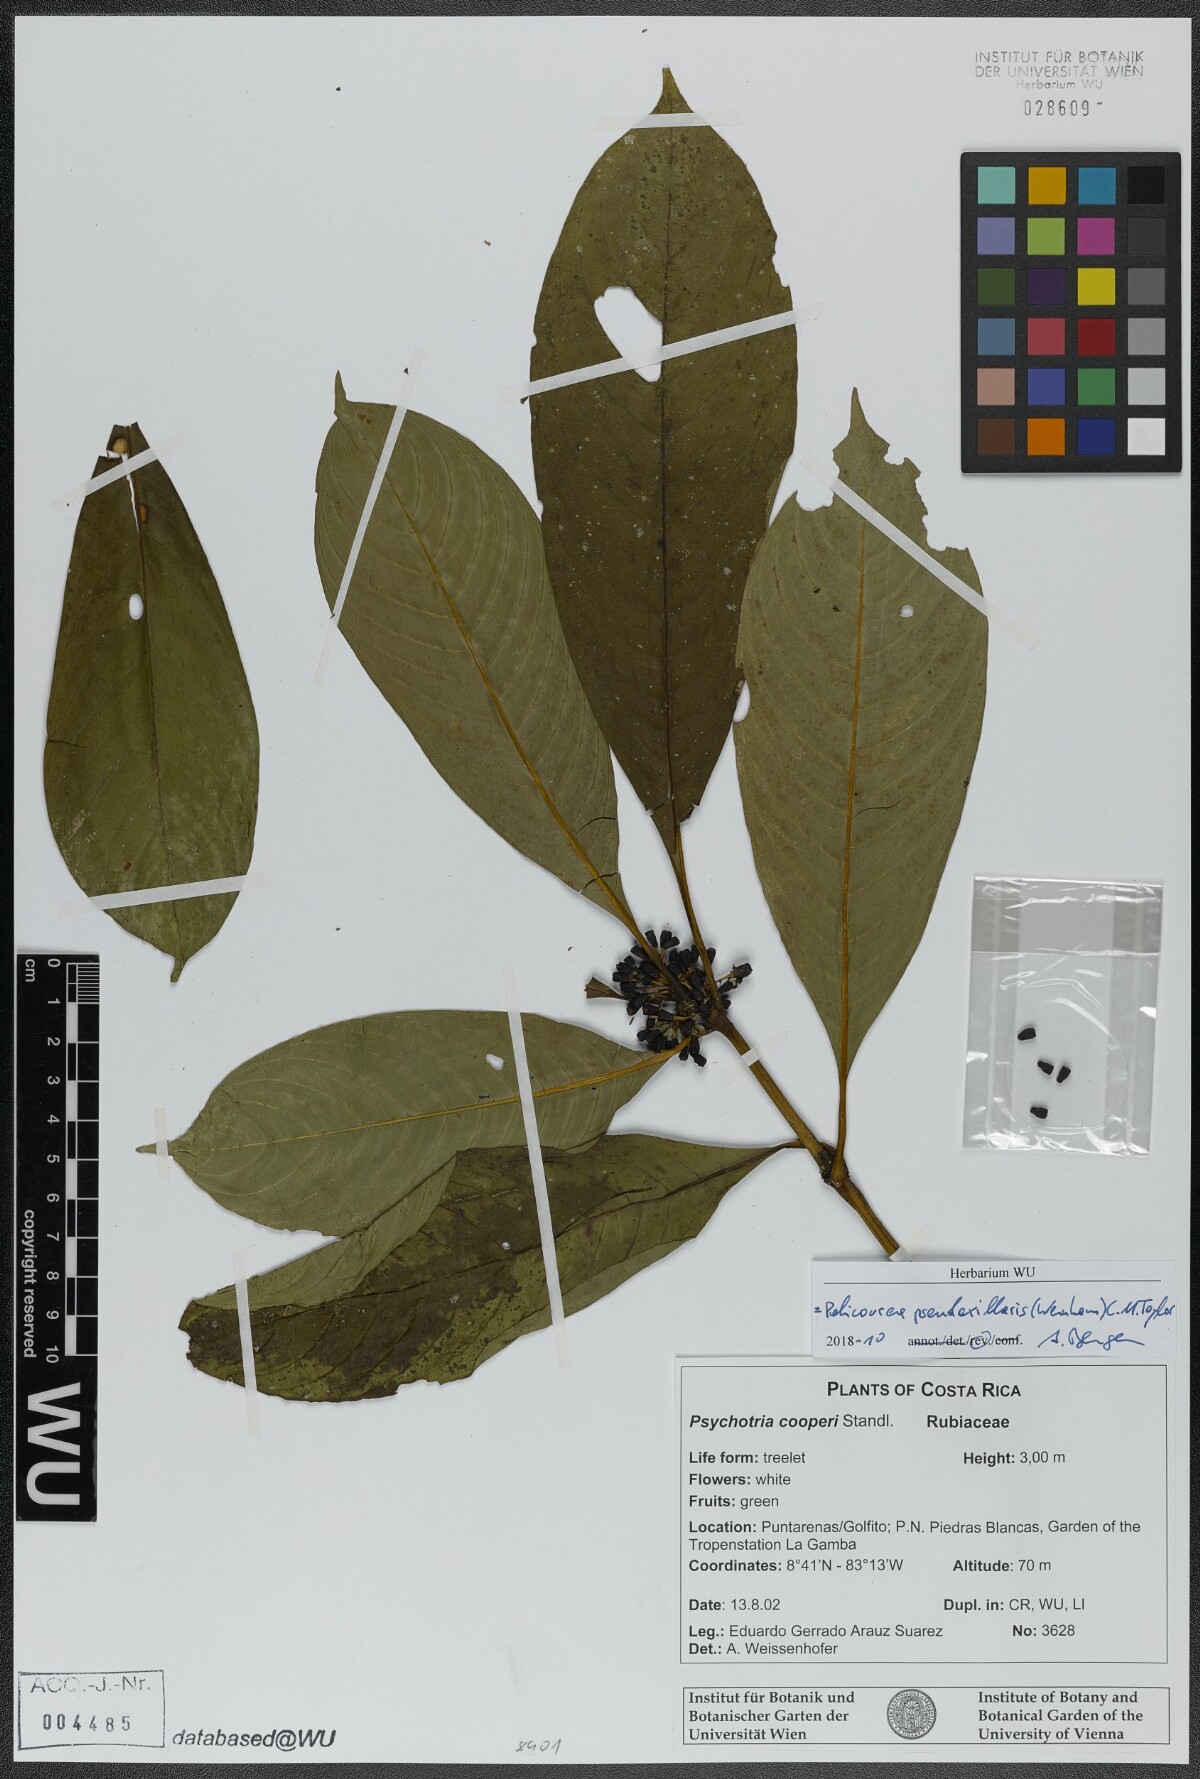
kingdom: Plantae
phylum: Tracheophyta
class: Magnoliopsida
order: Gentianales
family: Rubiaceae
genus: Palicourea
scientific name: Palicourea pseudaxillaris
